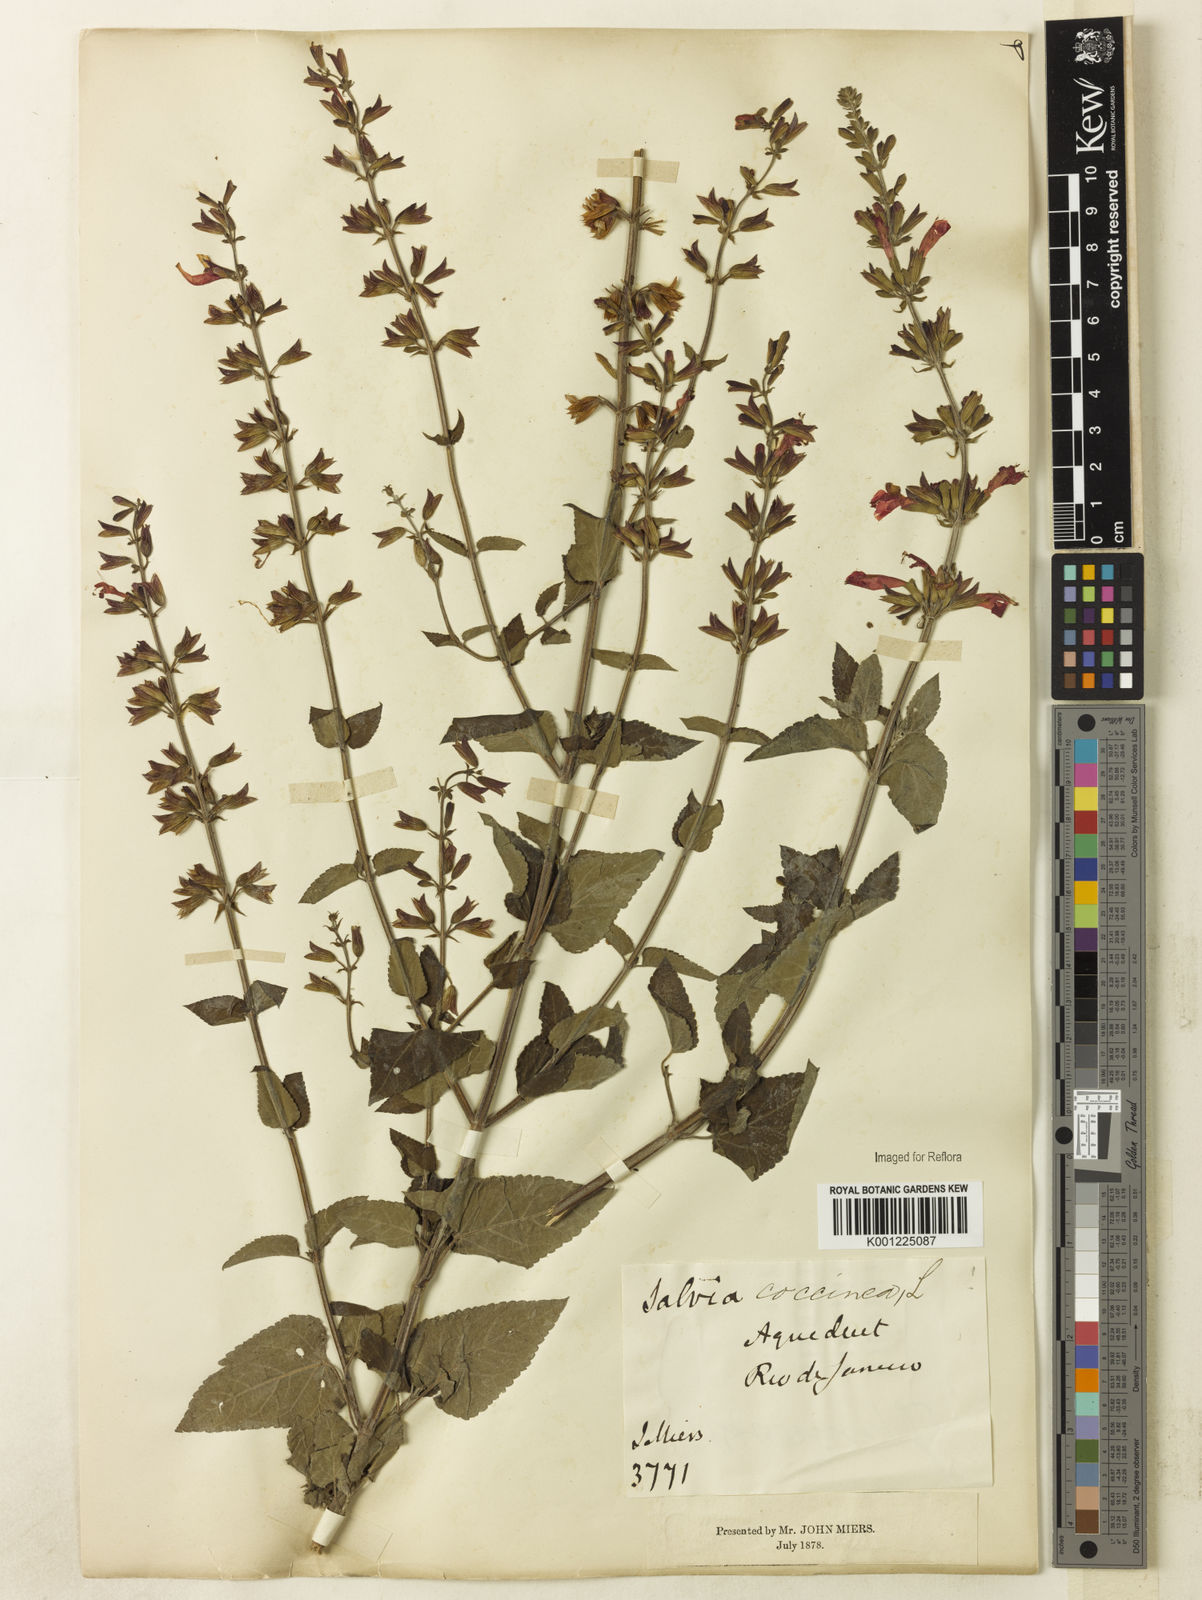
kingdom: Plantae
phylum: Tracheophyta
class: Magnoliopsida
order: Lamiales
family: Lamiaceae
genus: Salvia
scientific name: Salvia coccinea
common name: Blood sage
